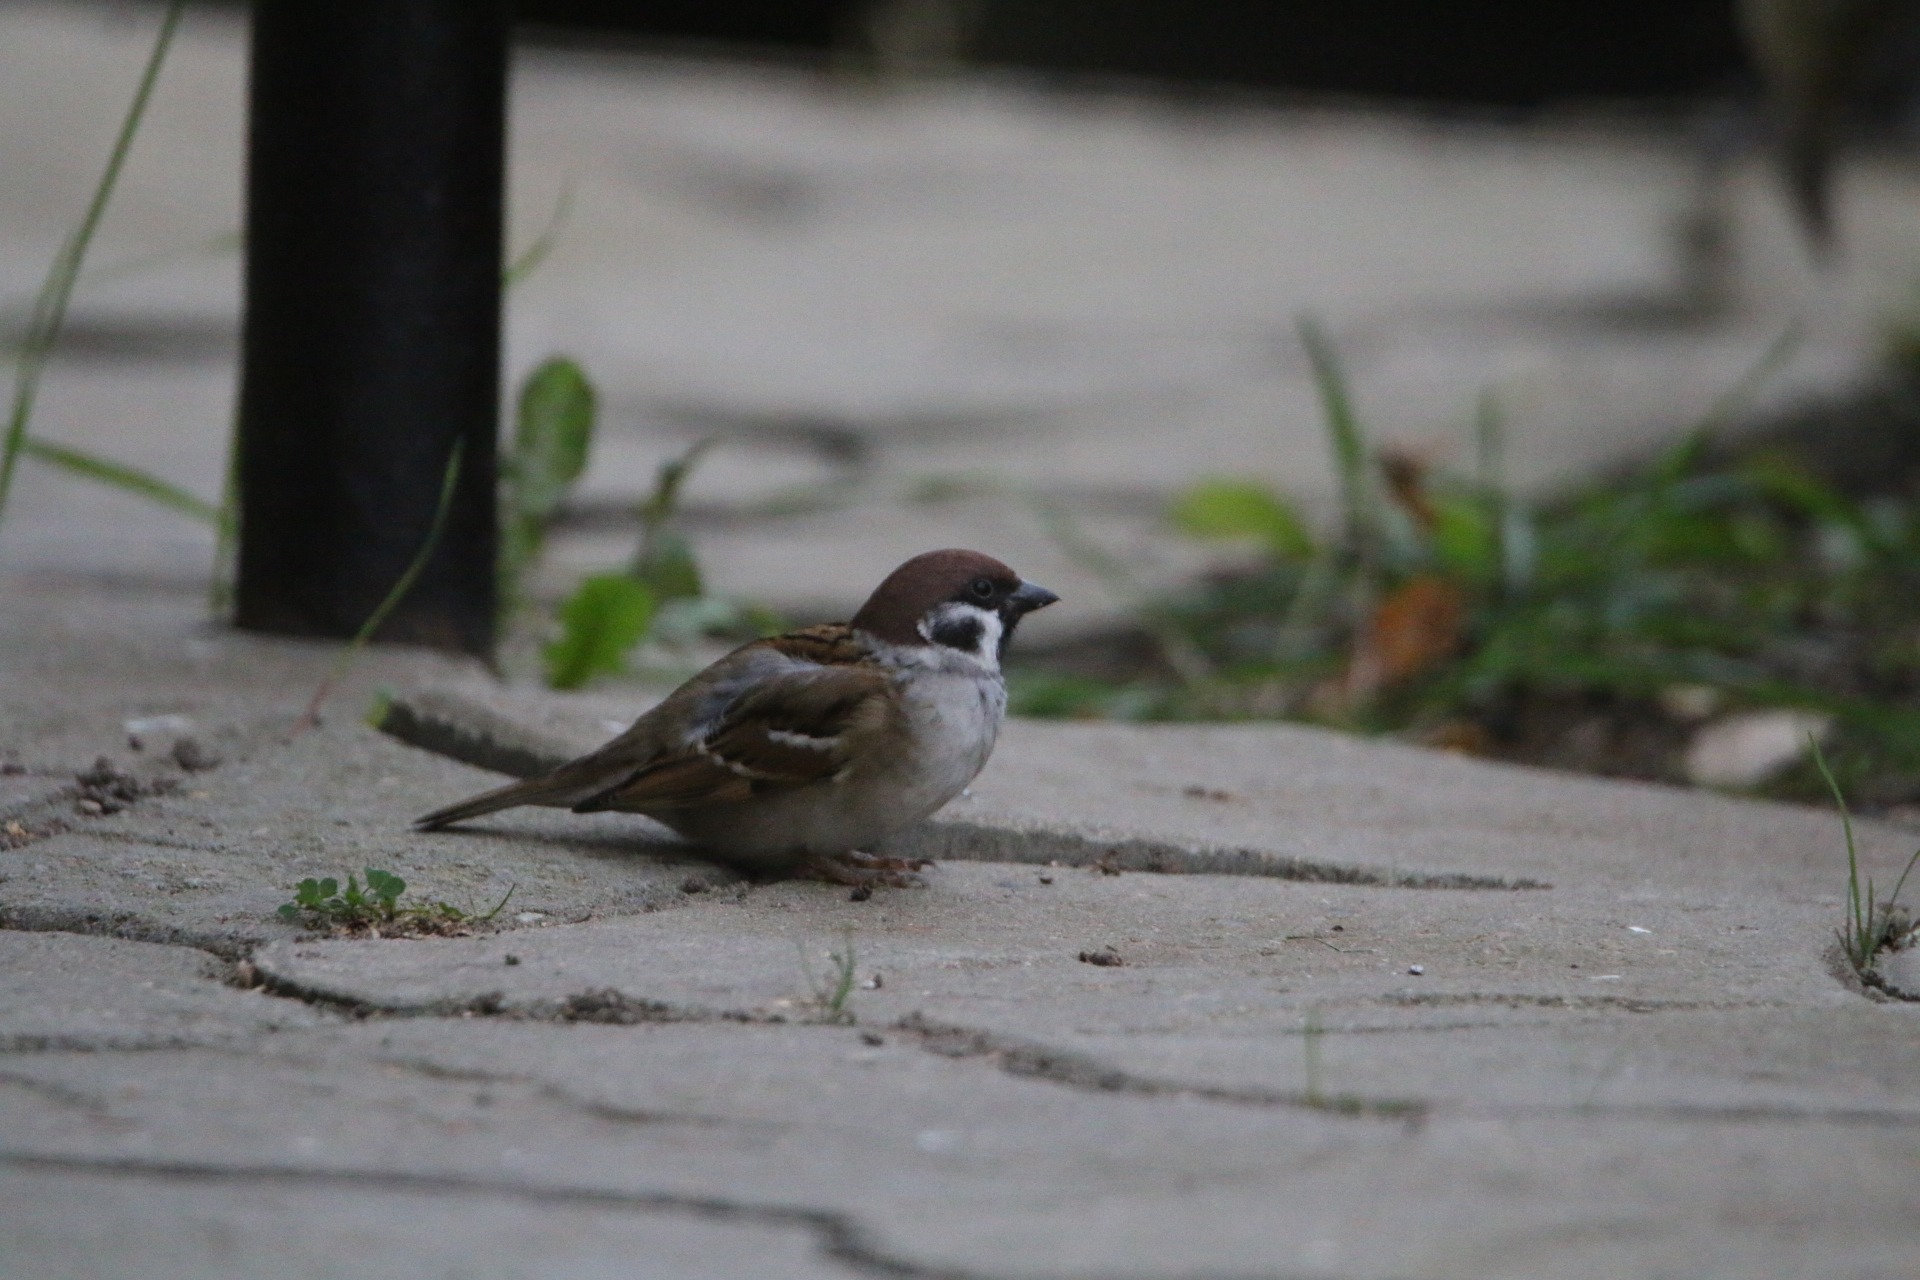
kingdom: Animalia
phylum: Chordata
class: Aves
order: Passeriformes
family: Passeridae
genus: Passer
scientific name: Passer montanus
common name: Skovspurv
